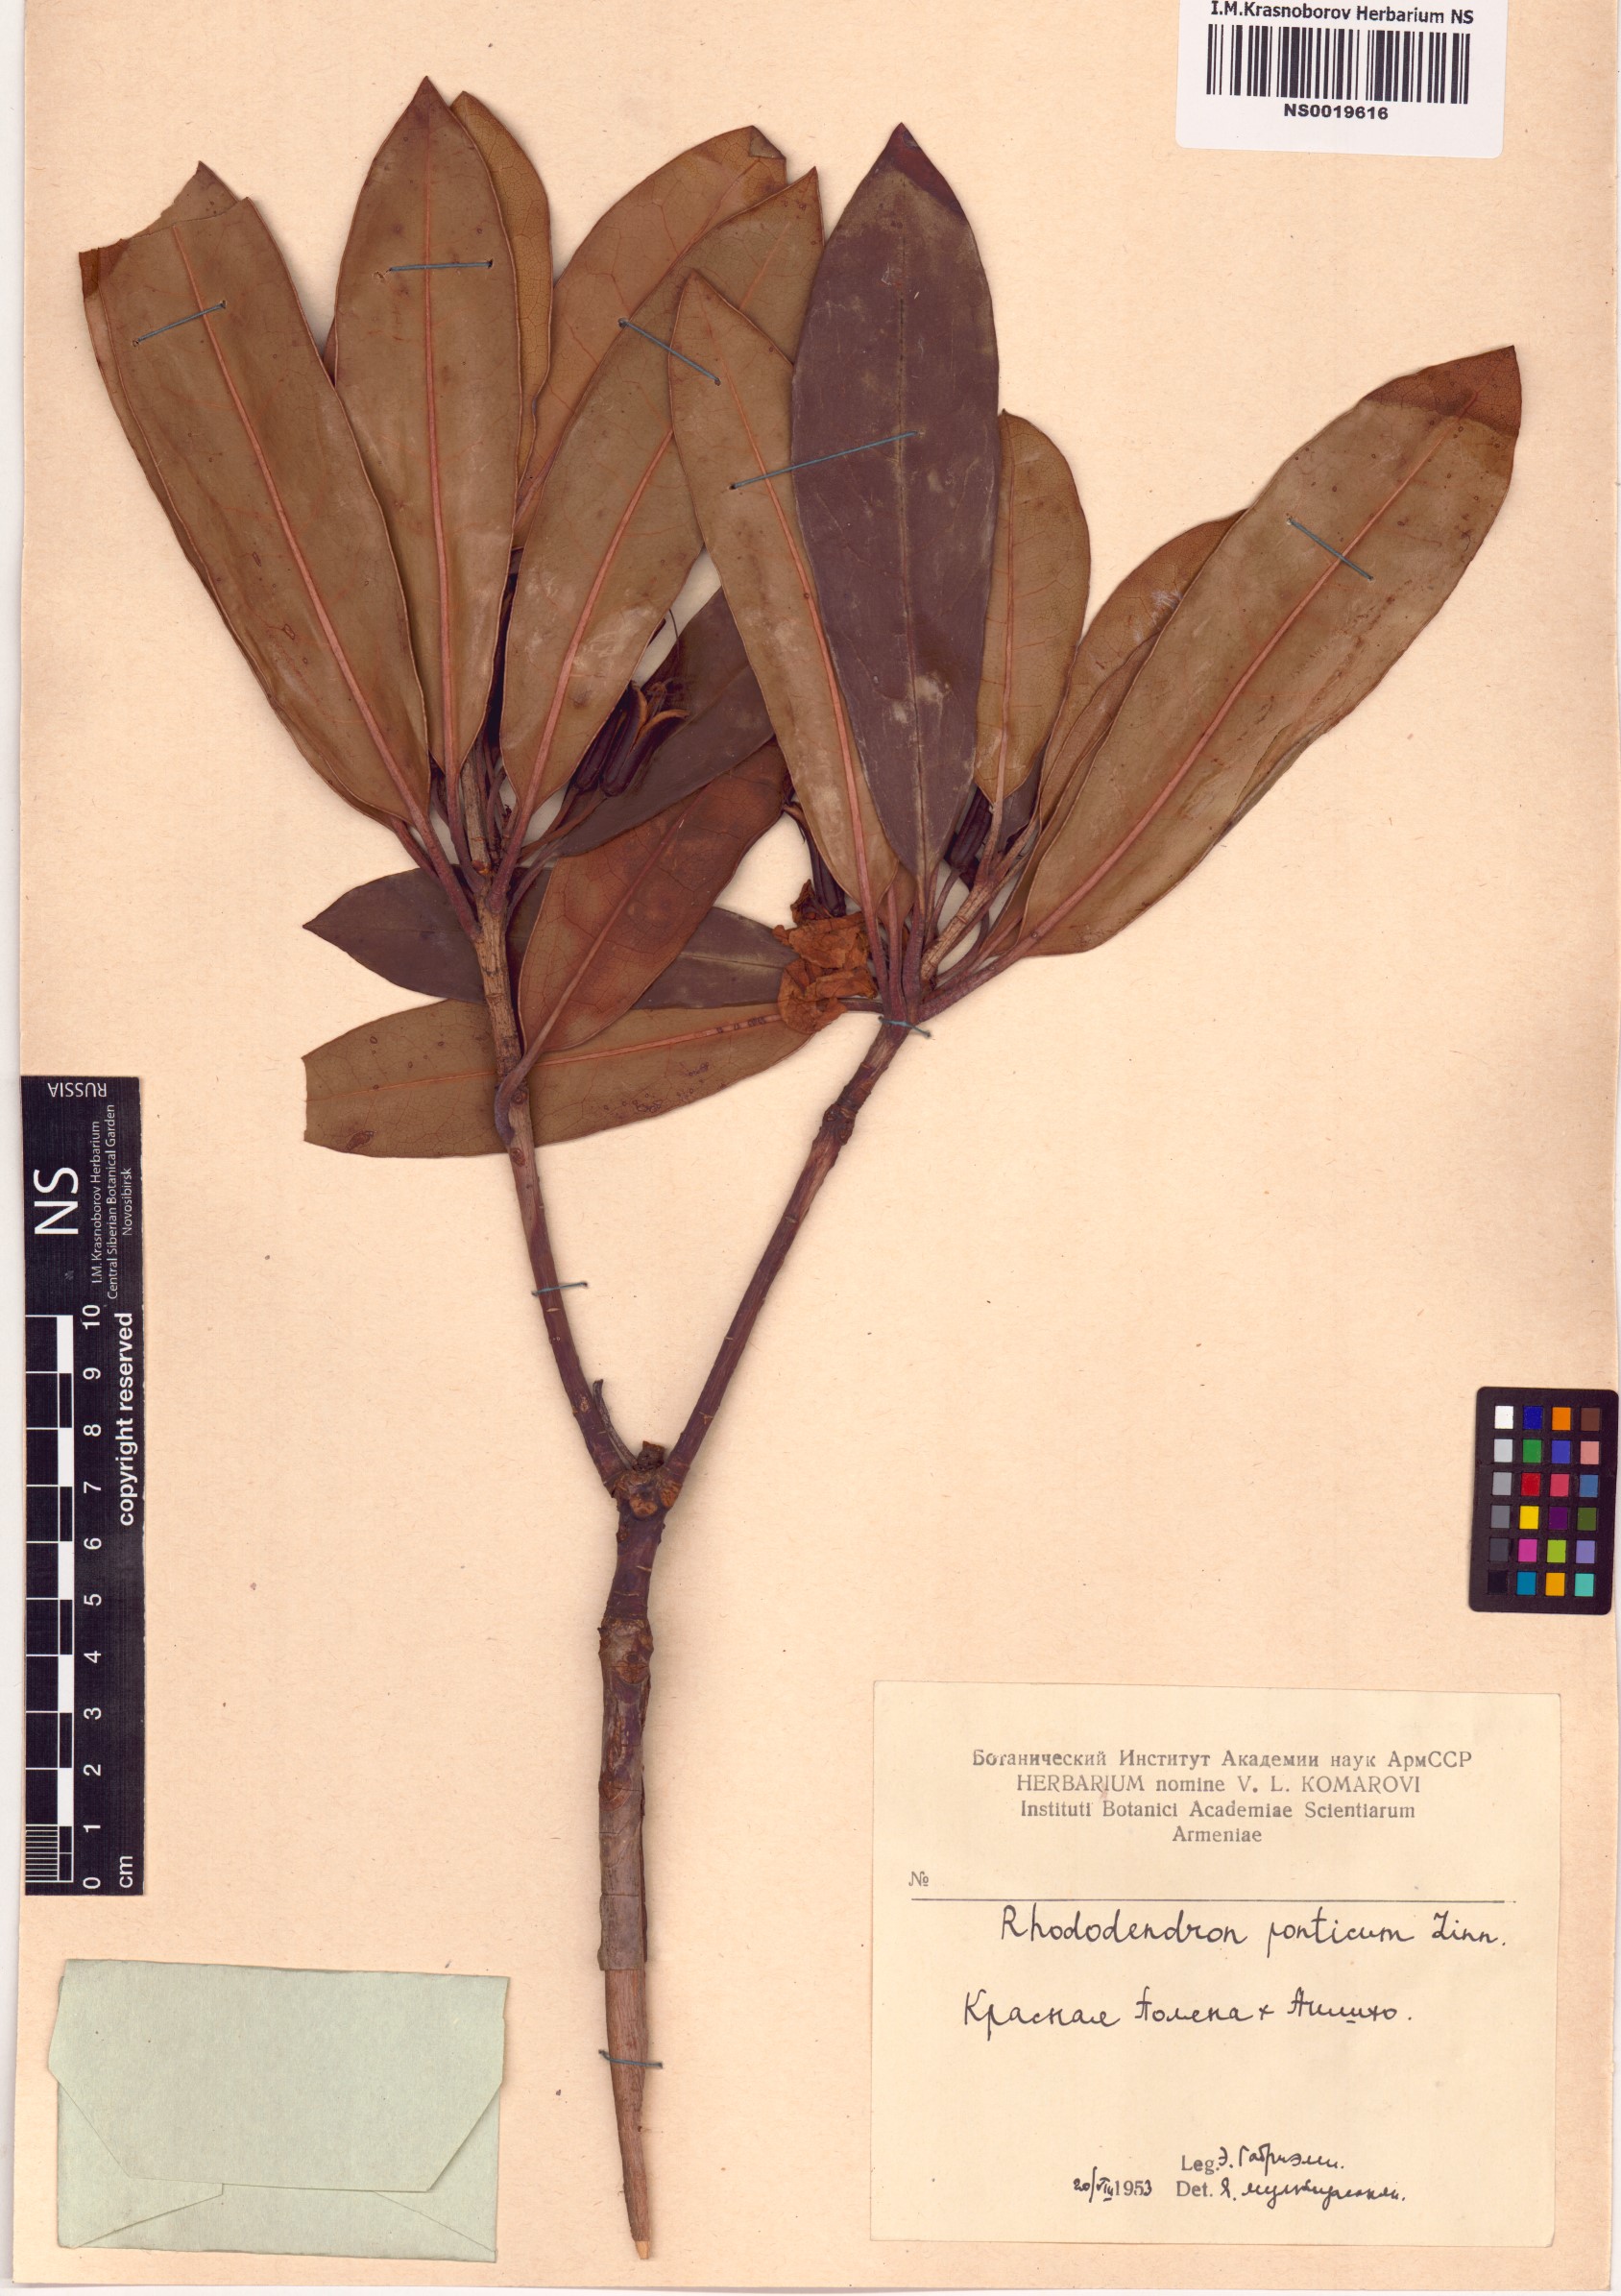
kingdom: Plantae
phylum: Tracheophyta
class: Magnoliopsida
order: Ericales
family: Ericaceae
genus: Rhododendron
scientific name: Rhododendron ponticum
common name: Rhododendron
